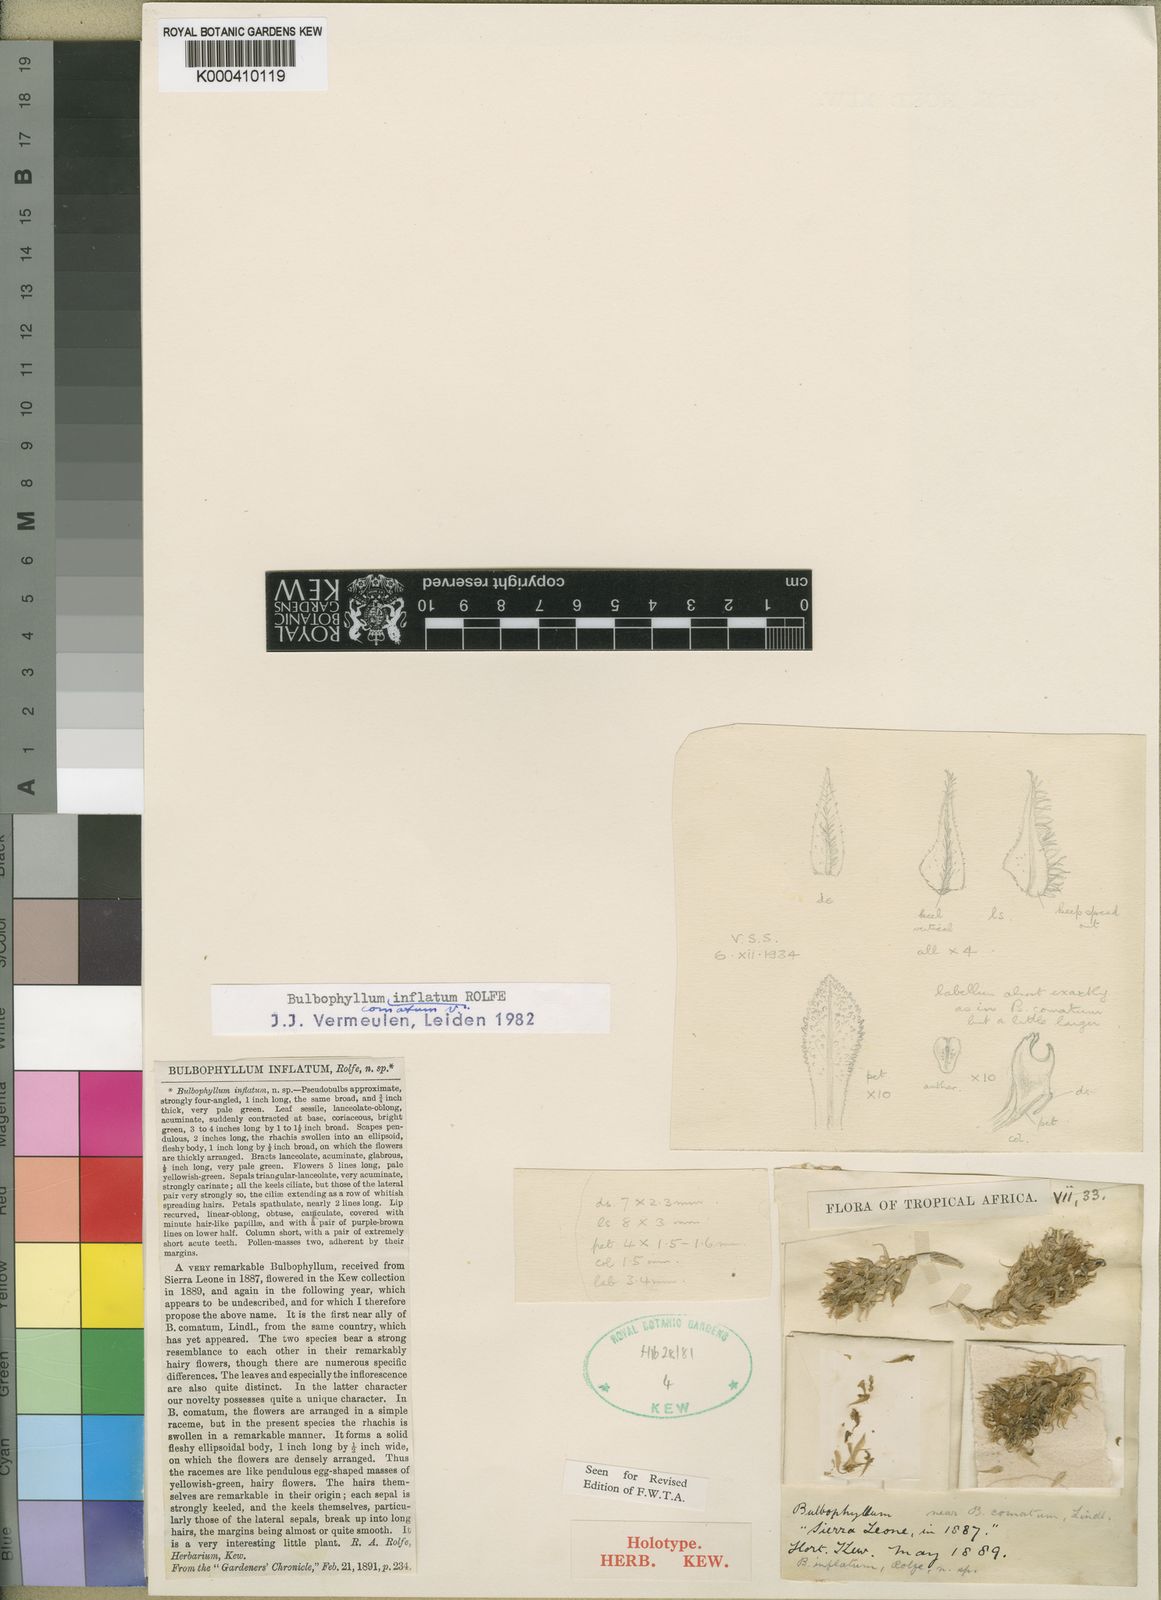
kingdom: Plantae
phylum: Tracheophyta
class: Liliopsida
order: Asparagales
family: Orchidaceae
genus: Bulbophyllum
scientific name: Bulbophyllum comatum
